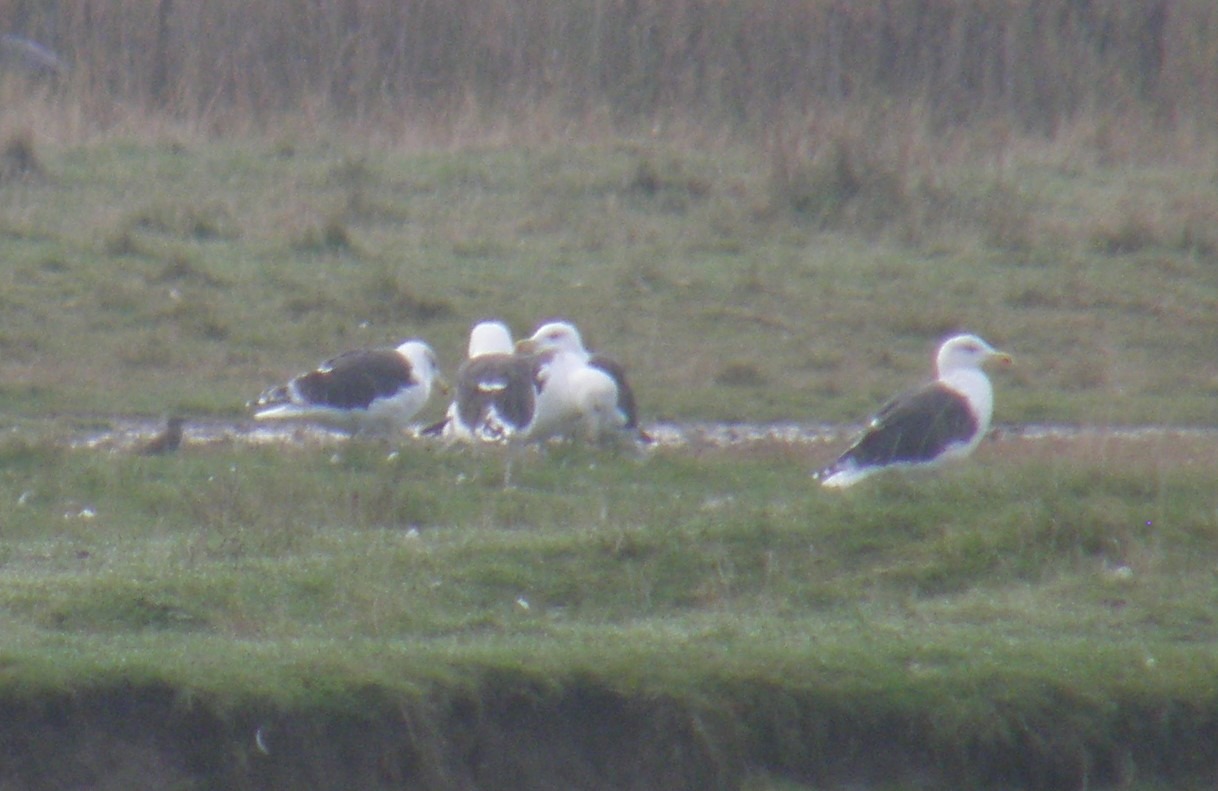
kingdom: Animalia
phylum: Chordata
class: Aves
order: Charadriiformes
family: Laridae
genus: Larus
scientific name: Larus marinus
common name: Svartbag
